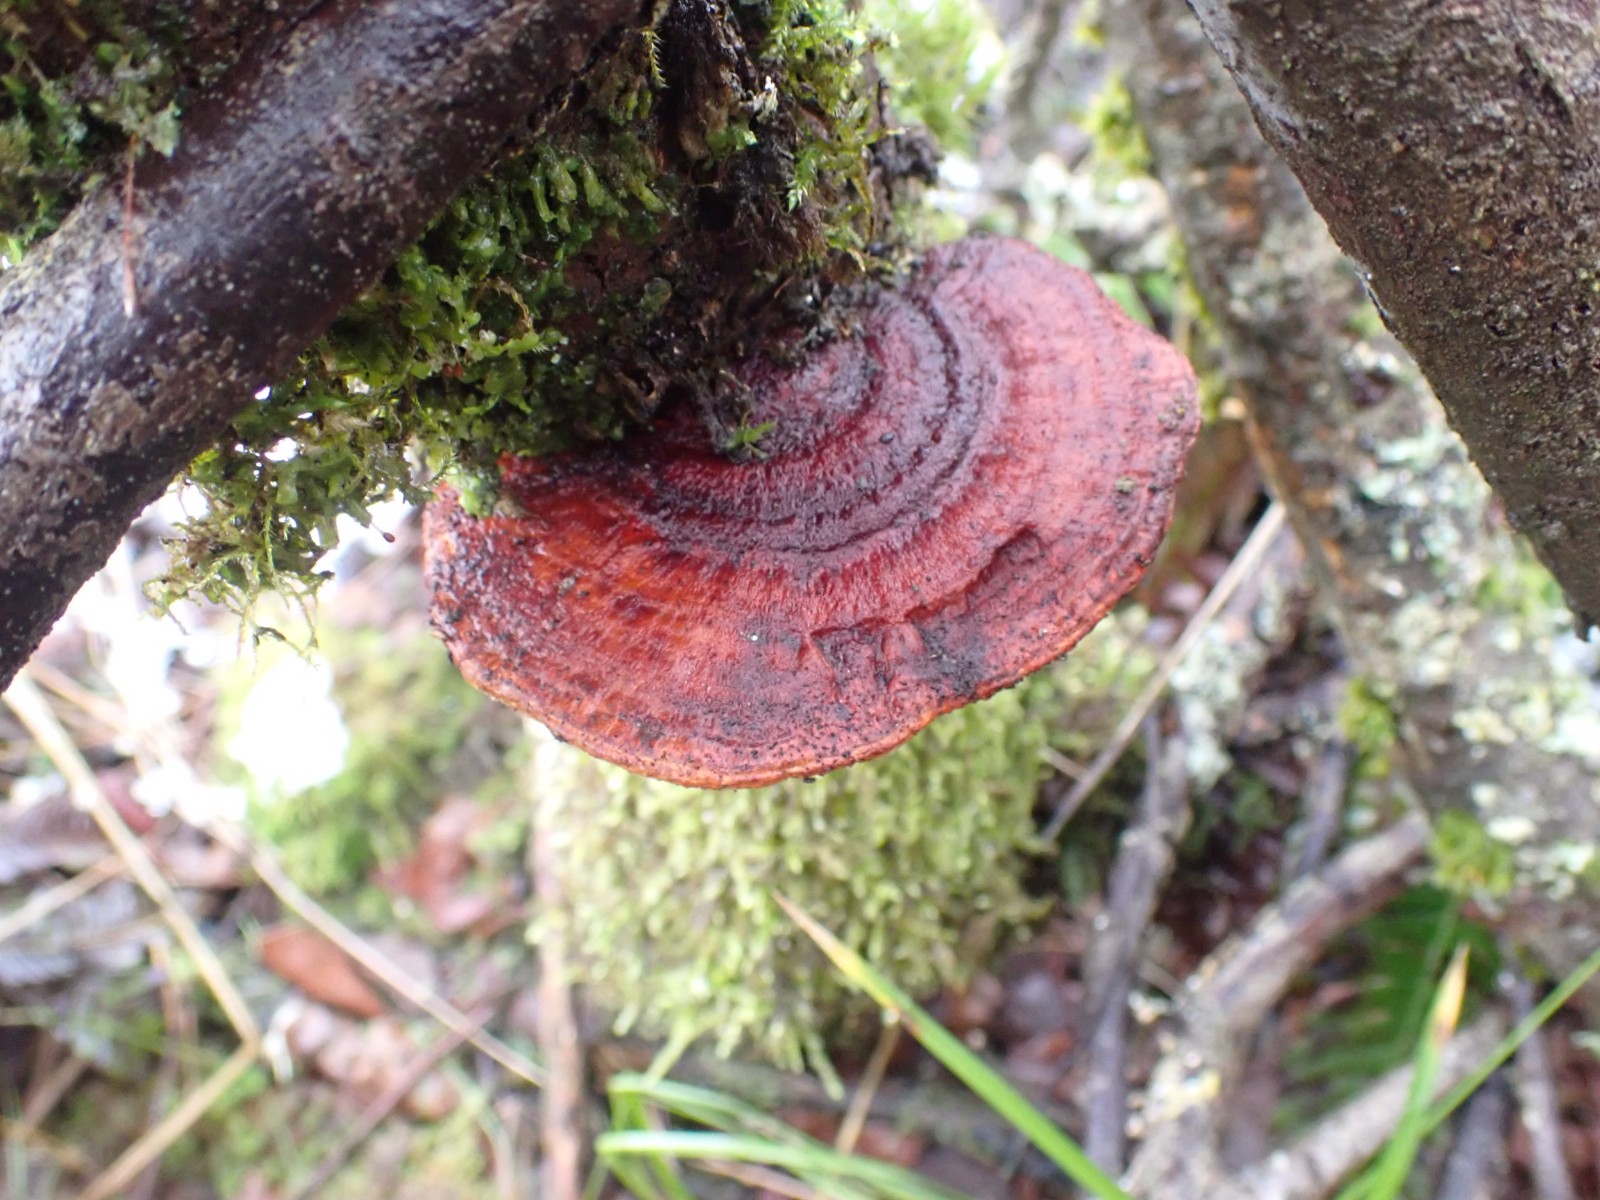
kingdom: Fungi
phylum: Basidiomycota
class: Agaricomycetes
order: Polyporales
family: Polyporaceae
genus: Daedaleopsis
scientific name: Daedaleopsis confragosa
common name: rødmende læderporesvamp
